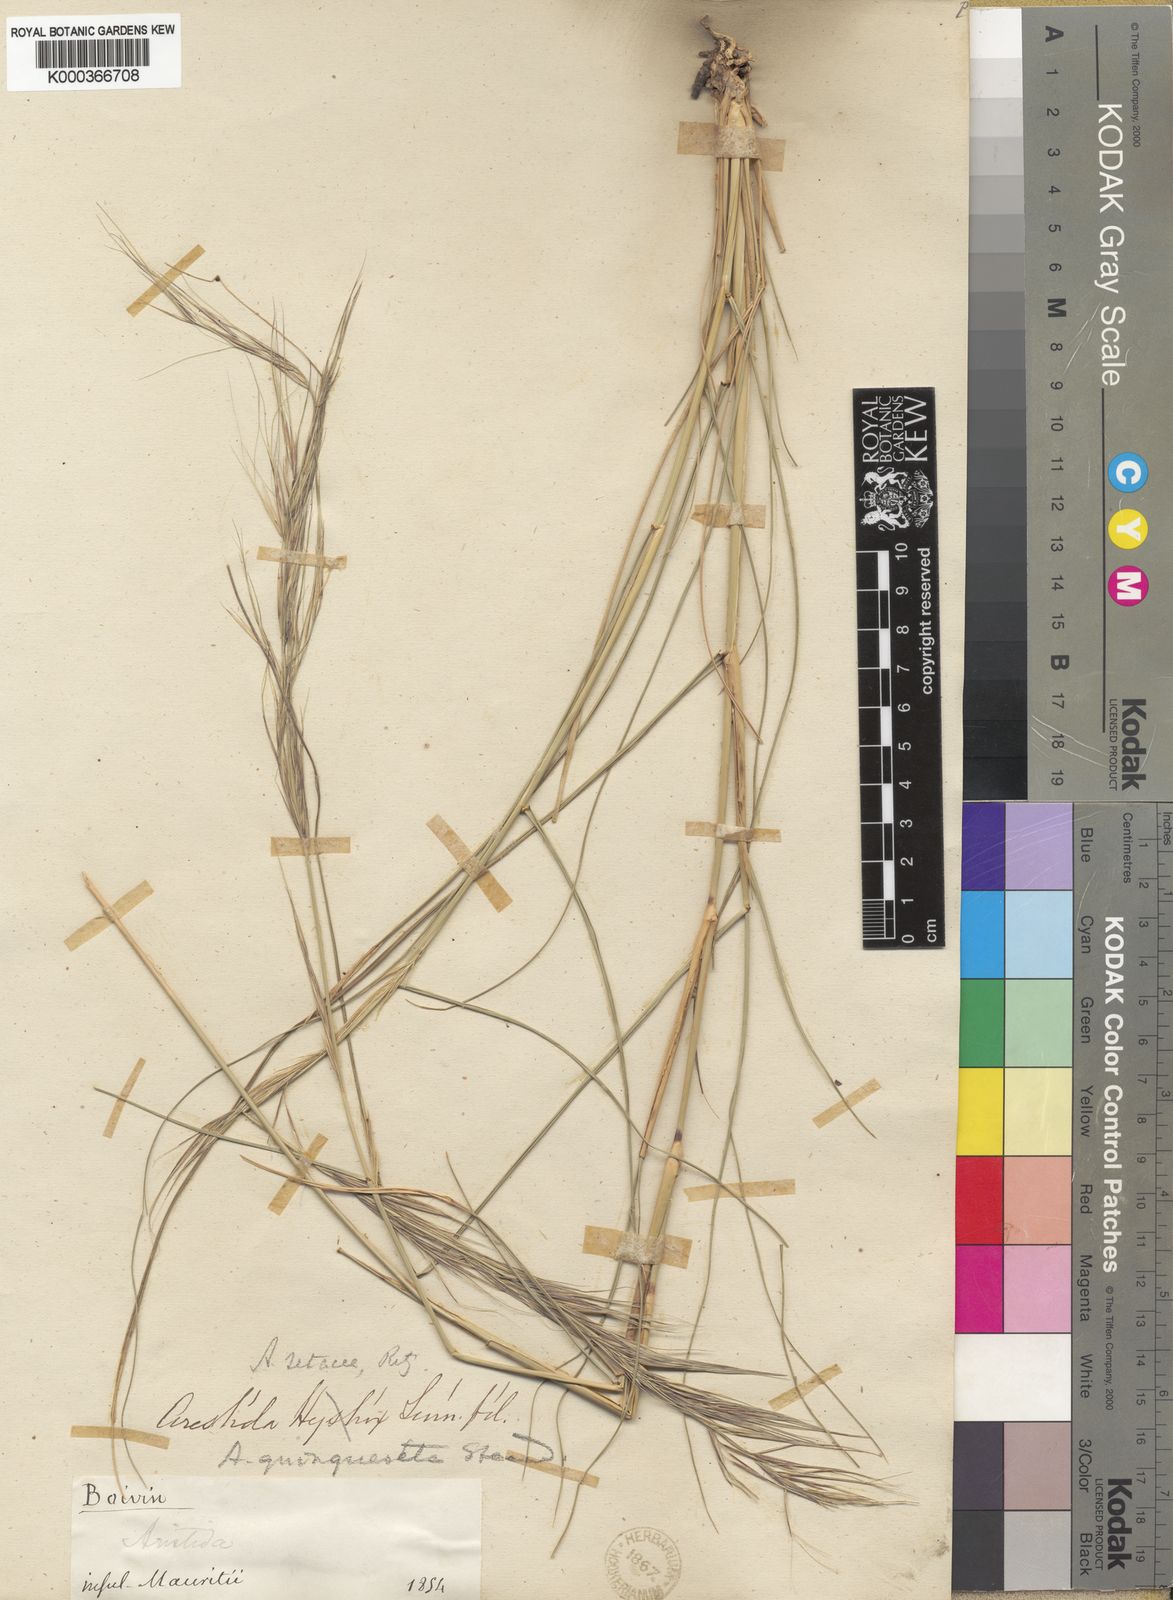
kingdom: Plantae
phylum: Tracheophyta
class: Liliopsida
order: Poales
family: Poaceae
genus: Aristida
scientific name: Aristida setacea
